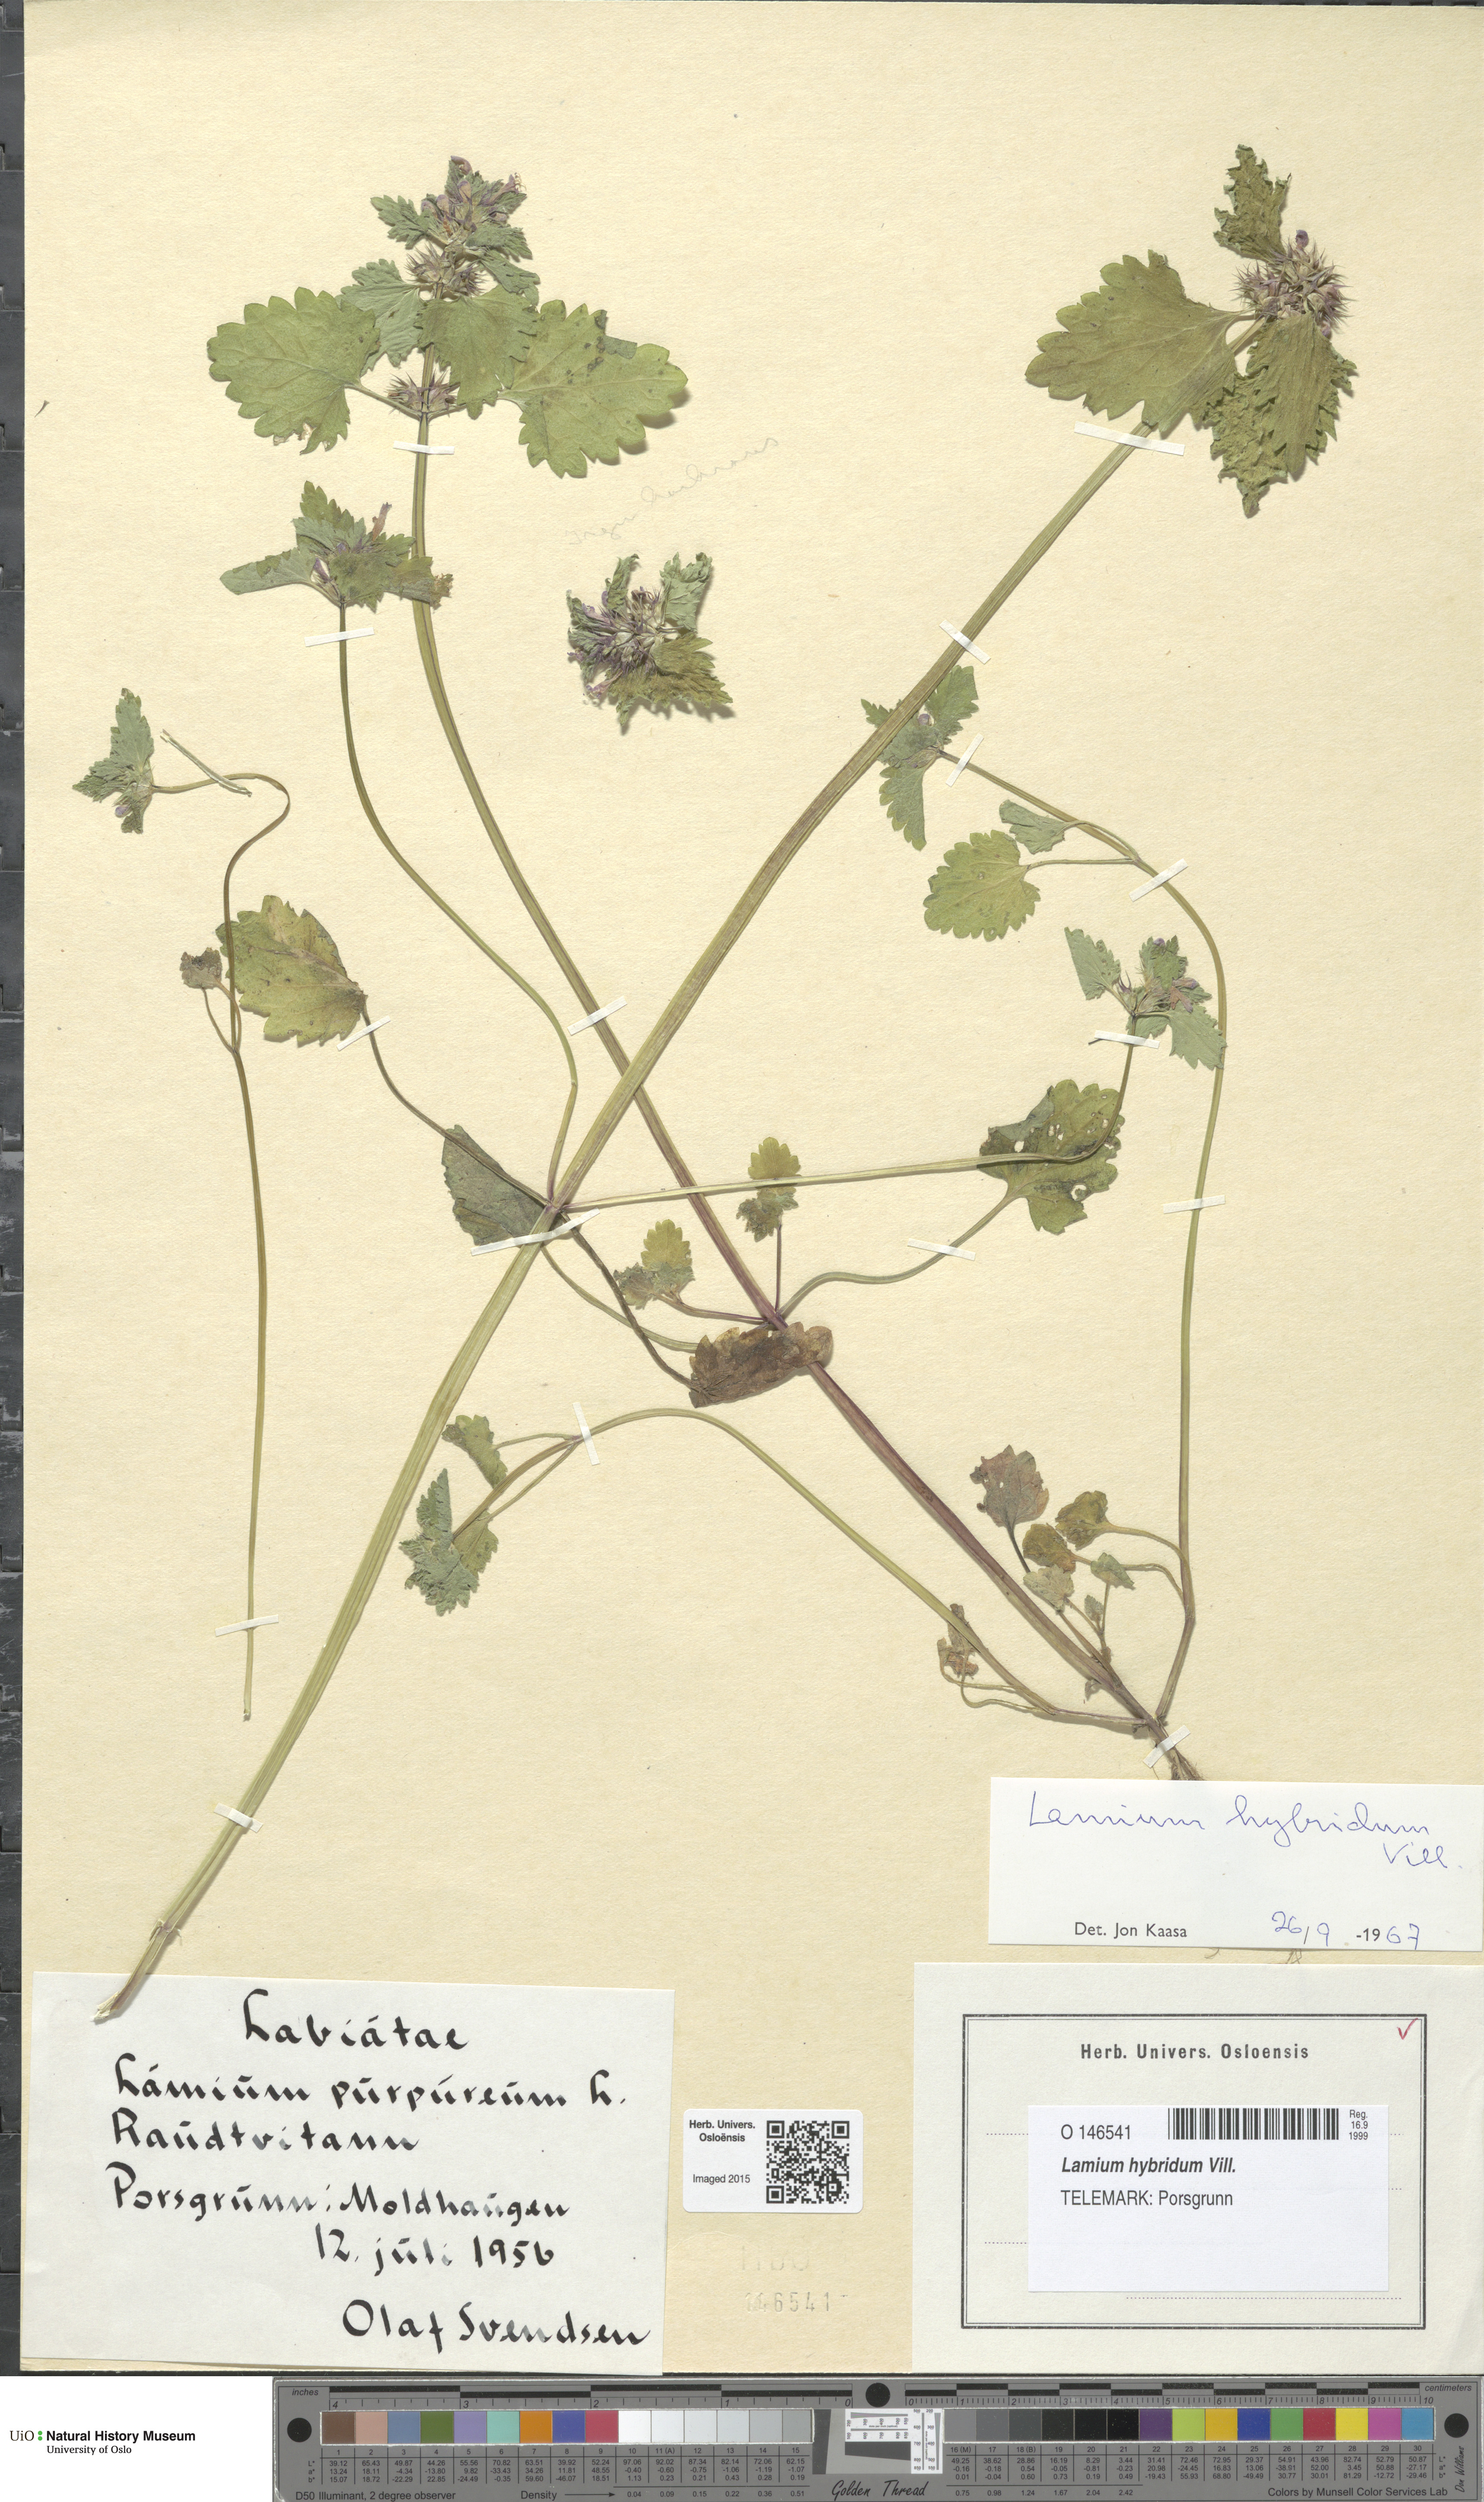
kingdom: Plantae
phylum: Tracheophyta
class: Magnoliopsida
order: Lamiales
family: Lamiaceae
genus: Lamium
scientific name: Lamium hybridum
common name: Cut-leaved dead-nettle
